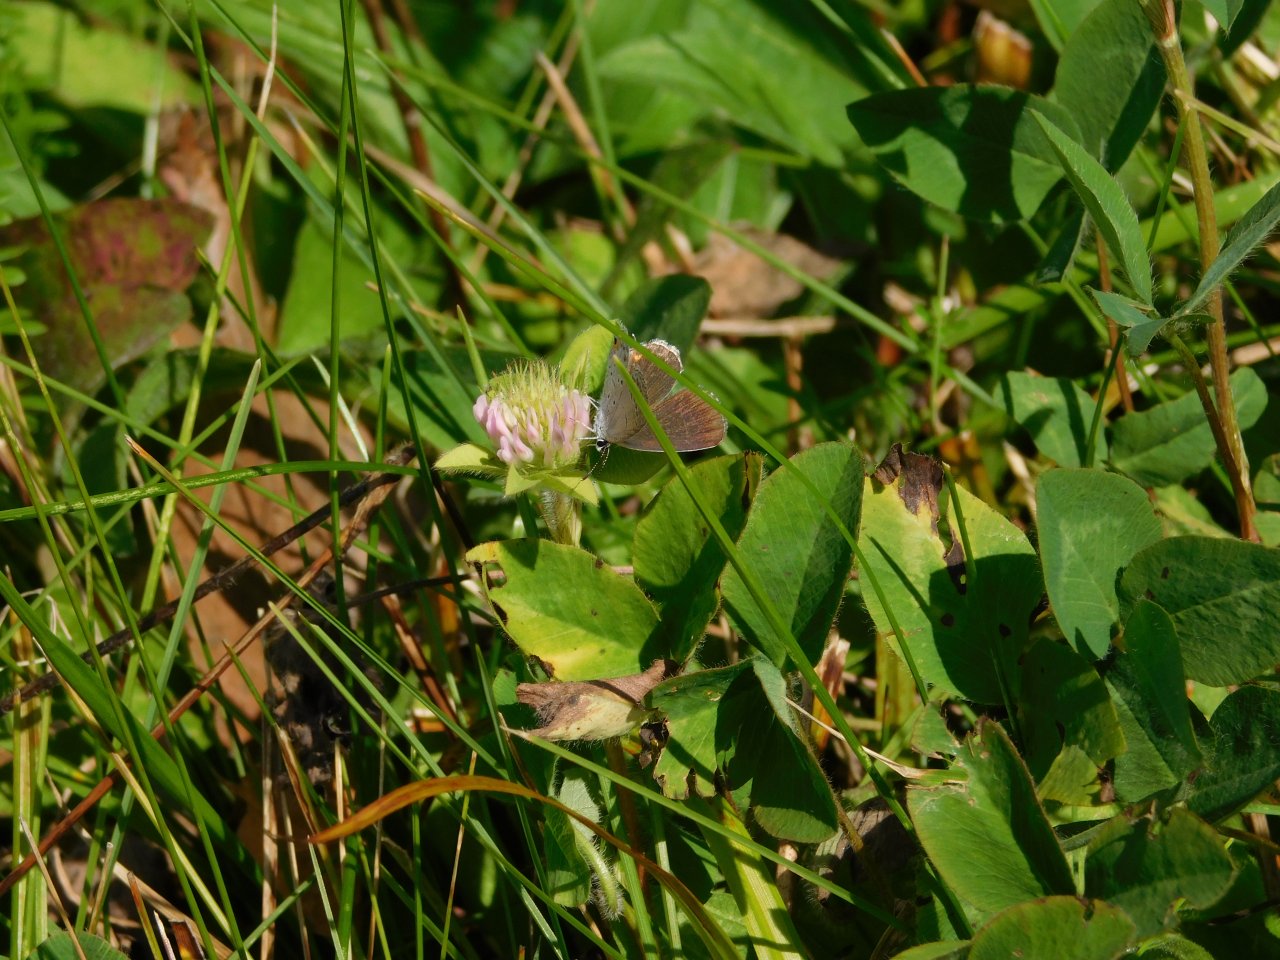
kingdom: Animalia
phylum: Arthropoda
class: Insecta
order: Lepidoptera
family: Lycaenidae
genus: Elkalyce
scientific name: Elkalyce comyntas
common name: Eastern Tailed-Blue
